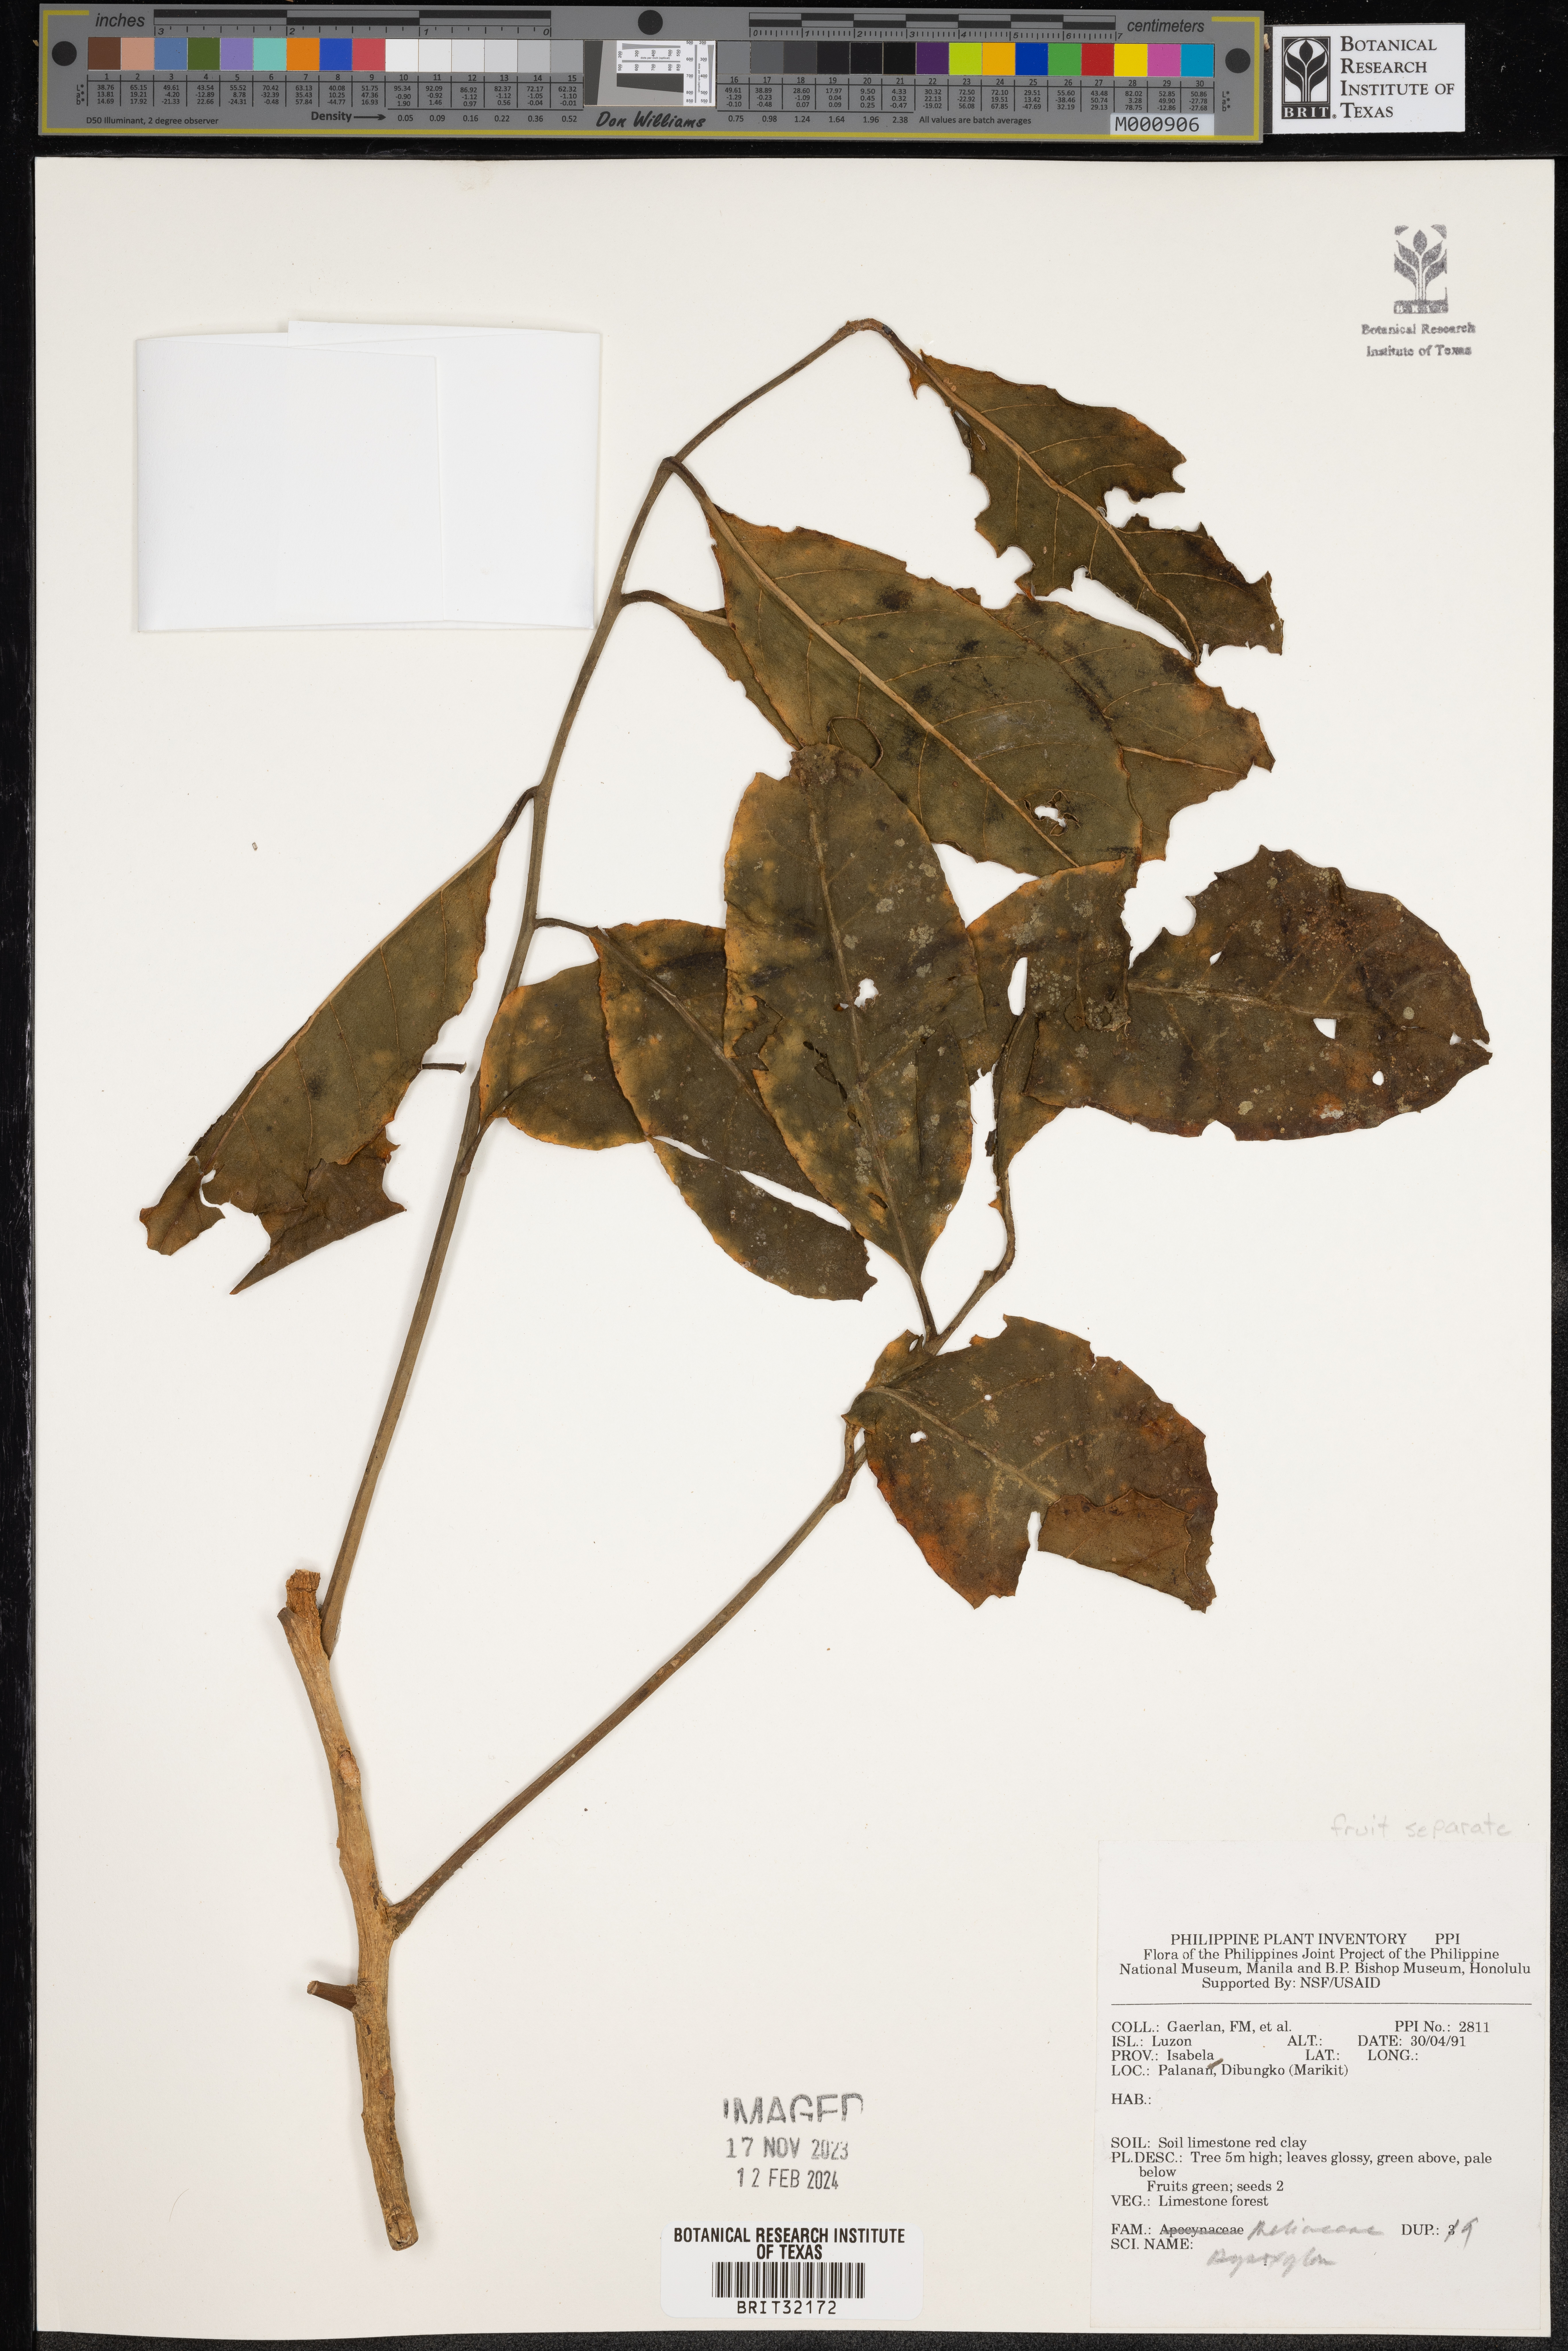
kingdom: Plantae
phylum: Tracheophyta
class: Magnoliopsida
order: Sapindales
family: Meliaceae
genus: Dysoxylum
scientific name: Dysoxylum
